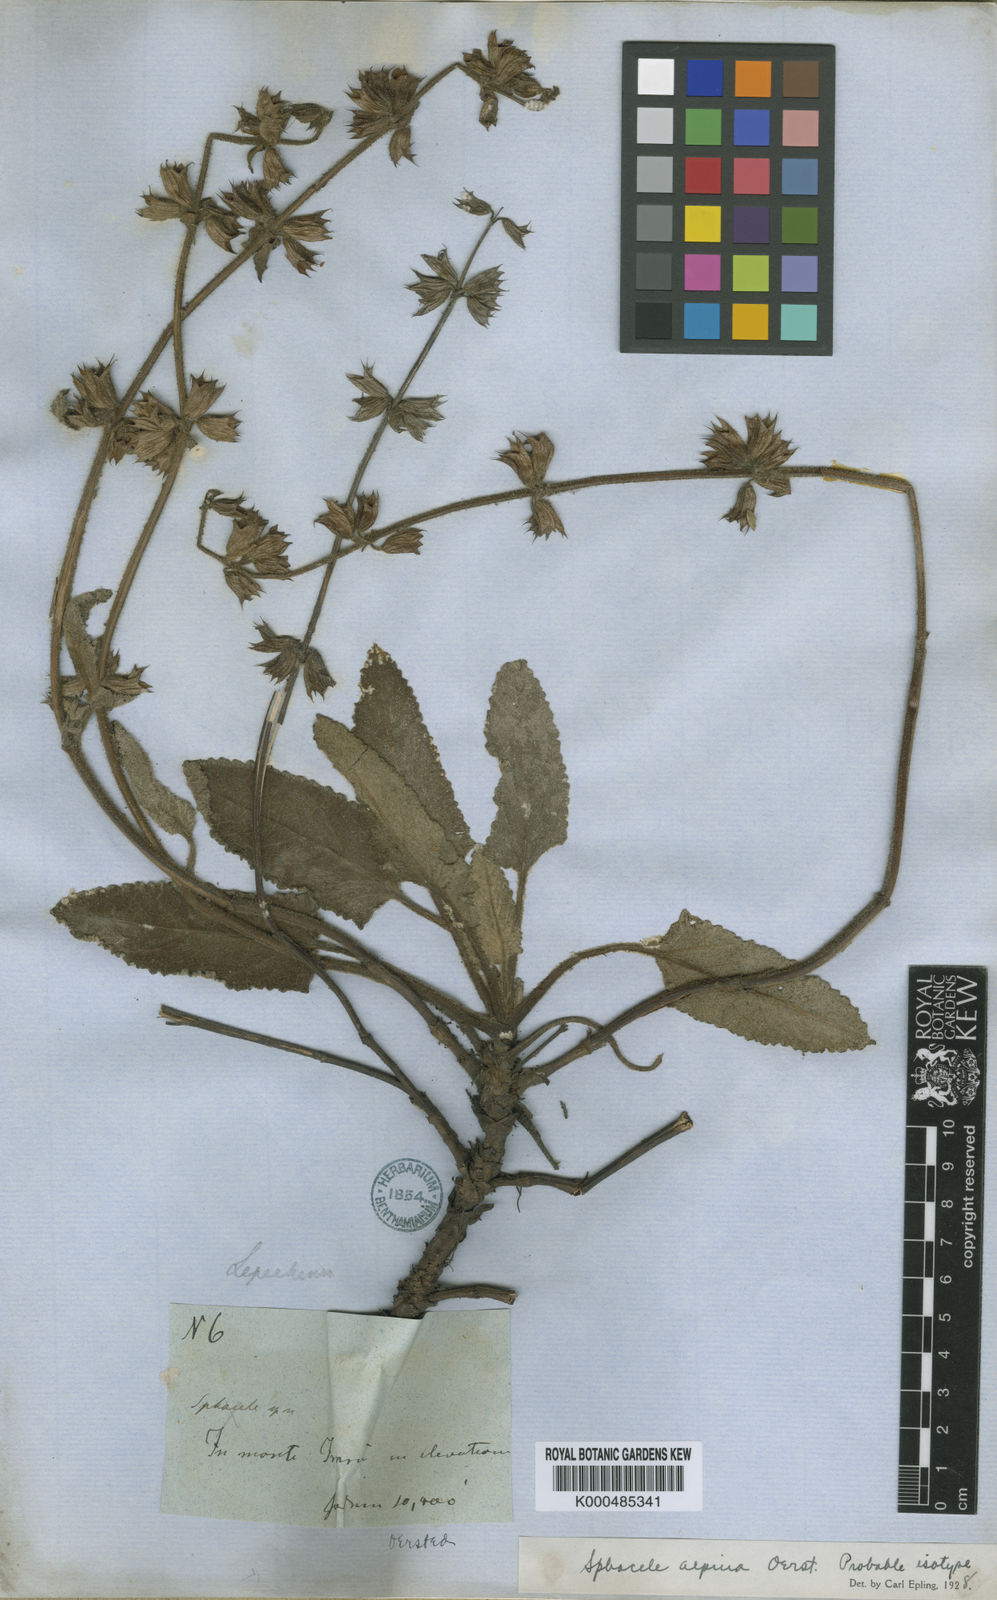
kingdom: Plantae
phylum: Tracheophyta
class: Magnoliopsida
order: Lamiales
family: Lamiaceae
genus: Lepechinia
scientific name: Lepechinia schiedeana
